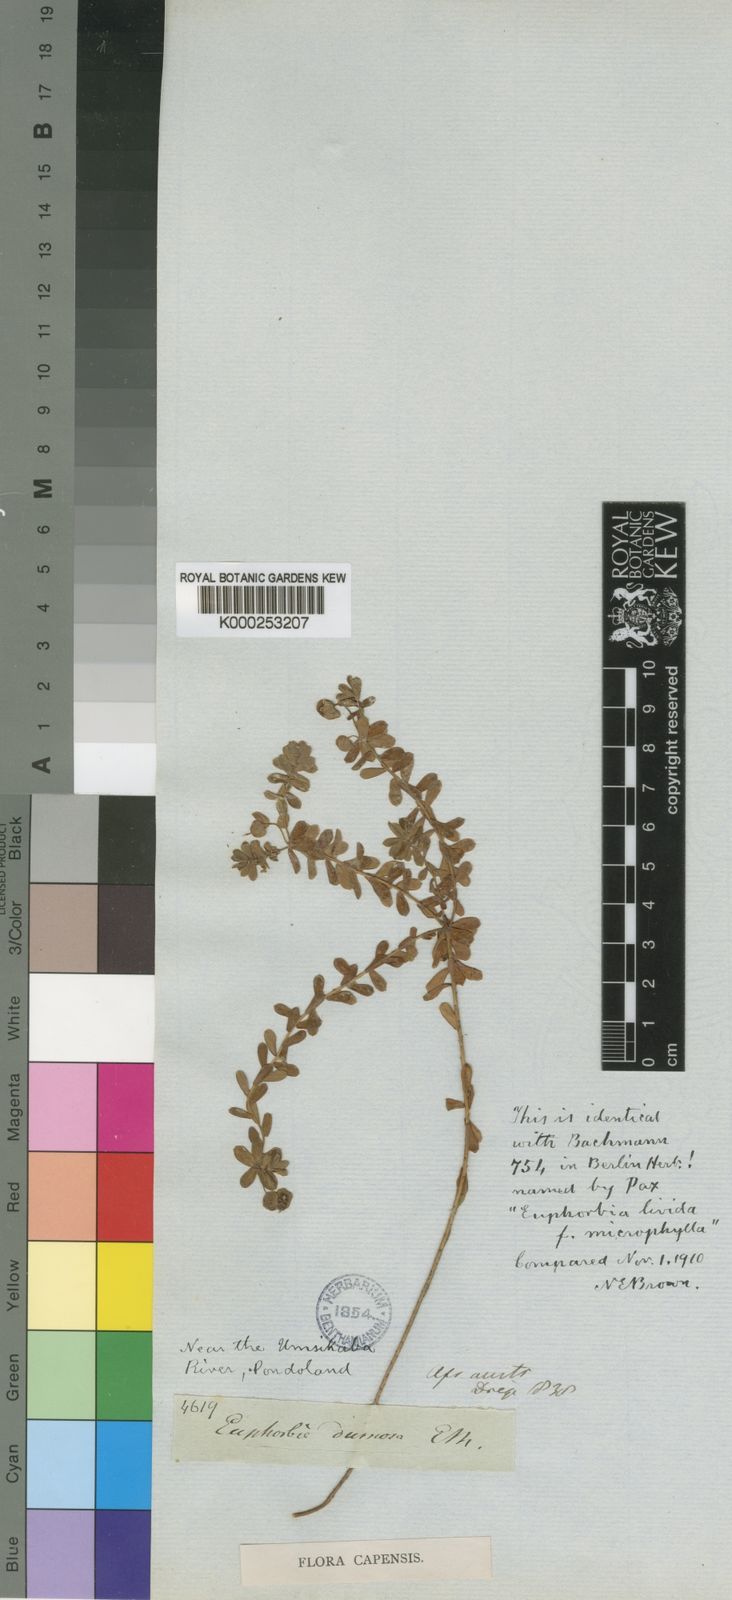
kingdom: Plantae
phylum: Tracheophyta
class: Magnoliopsida
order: Malpighiales
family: Euphorbiaceae
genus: Euphorbia
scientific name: Euphorbia foliosa
